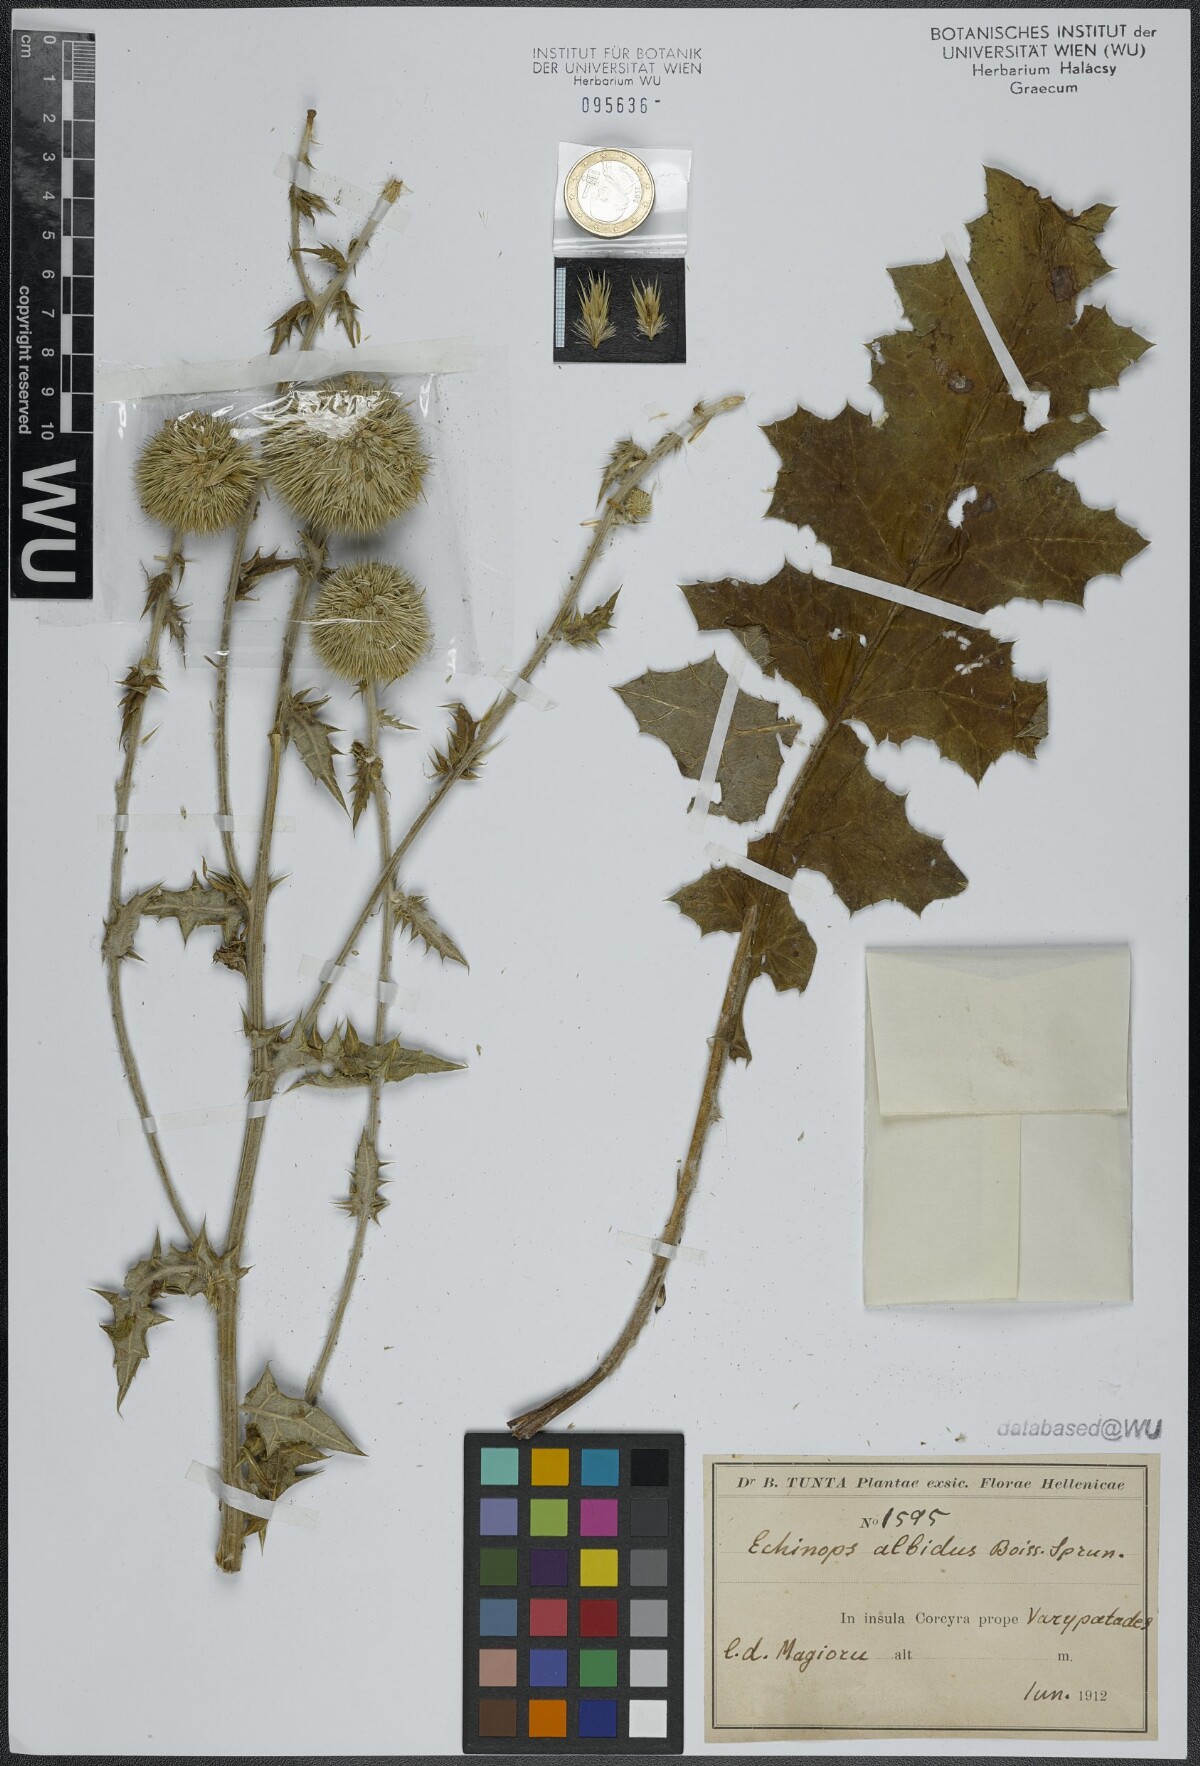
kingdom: Plantae
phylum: Tracheophyta
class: Magnoliopsida
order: Asterales
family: Asteraceae
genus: Echinops
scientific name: Echinops ritro
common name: Globe thistle
